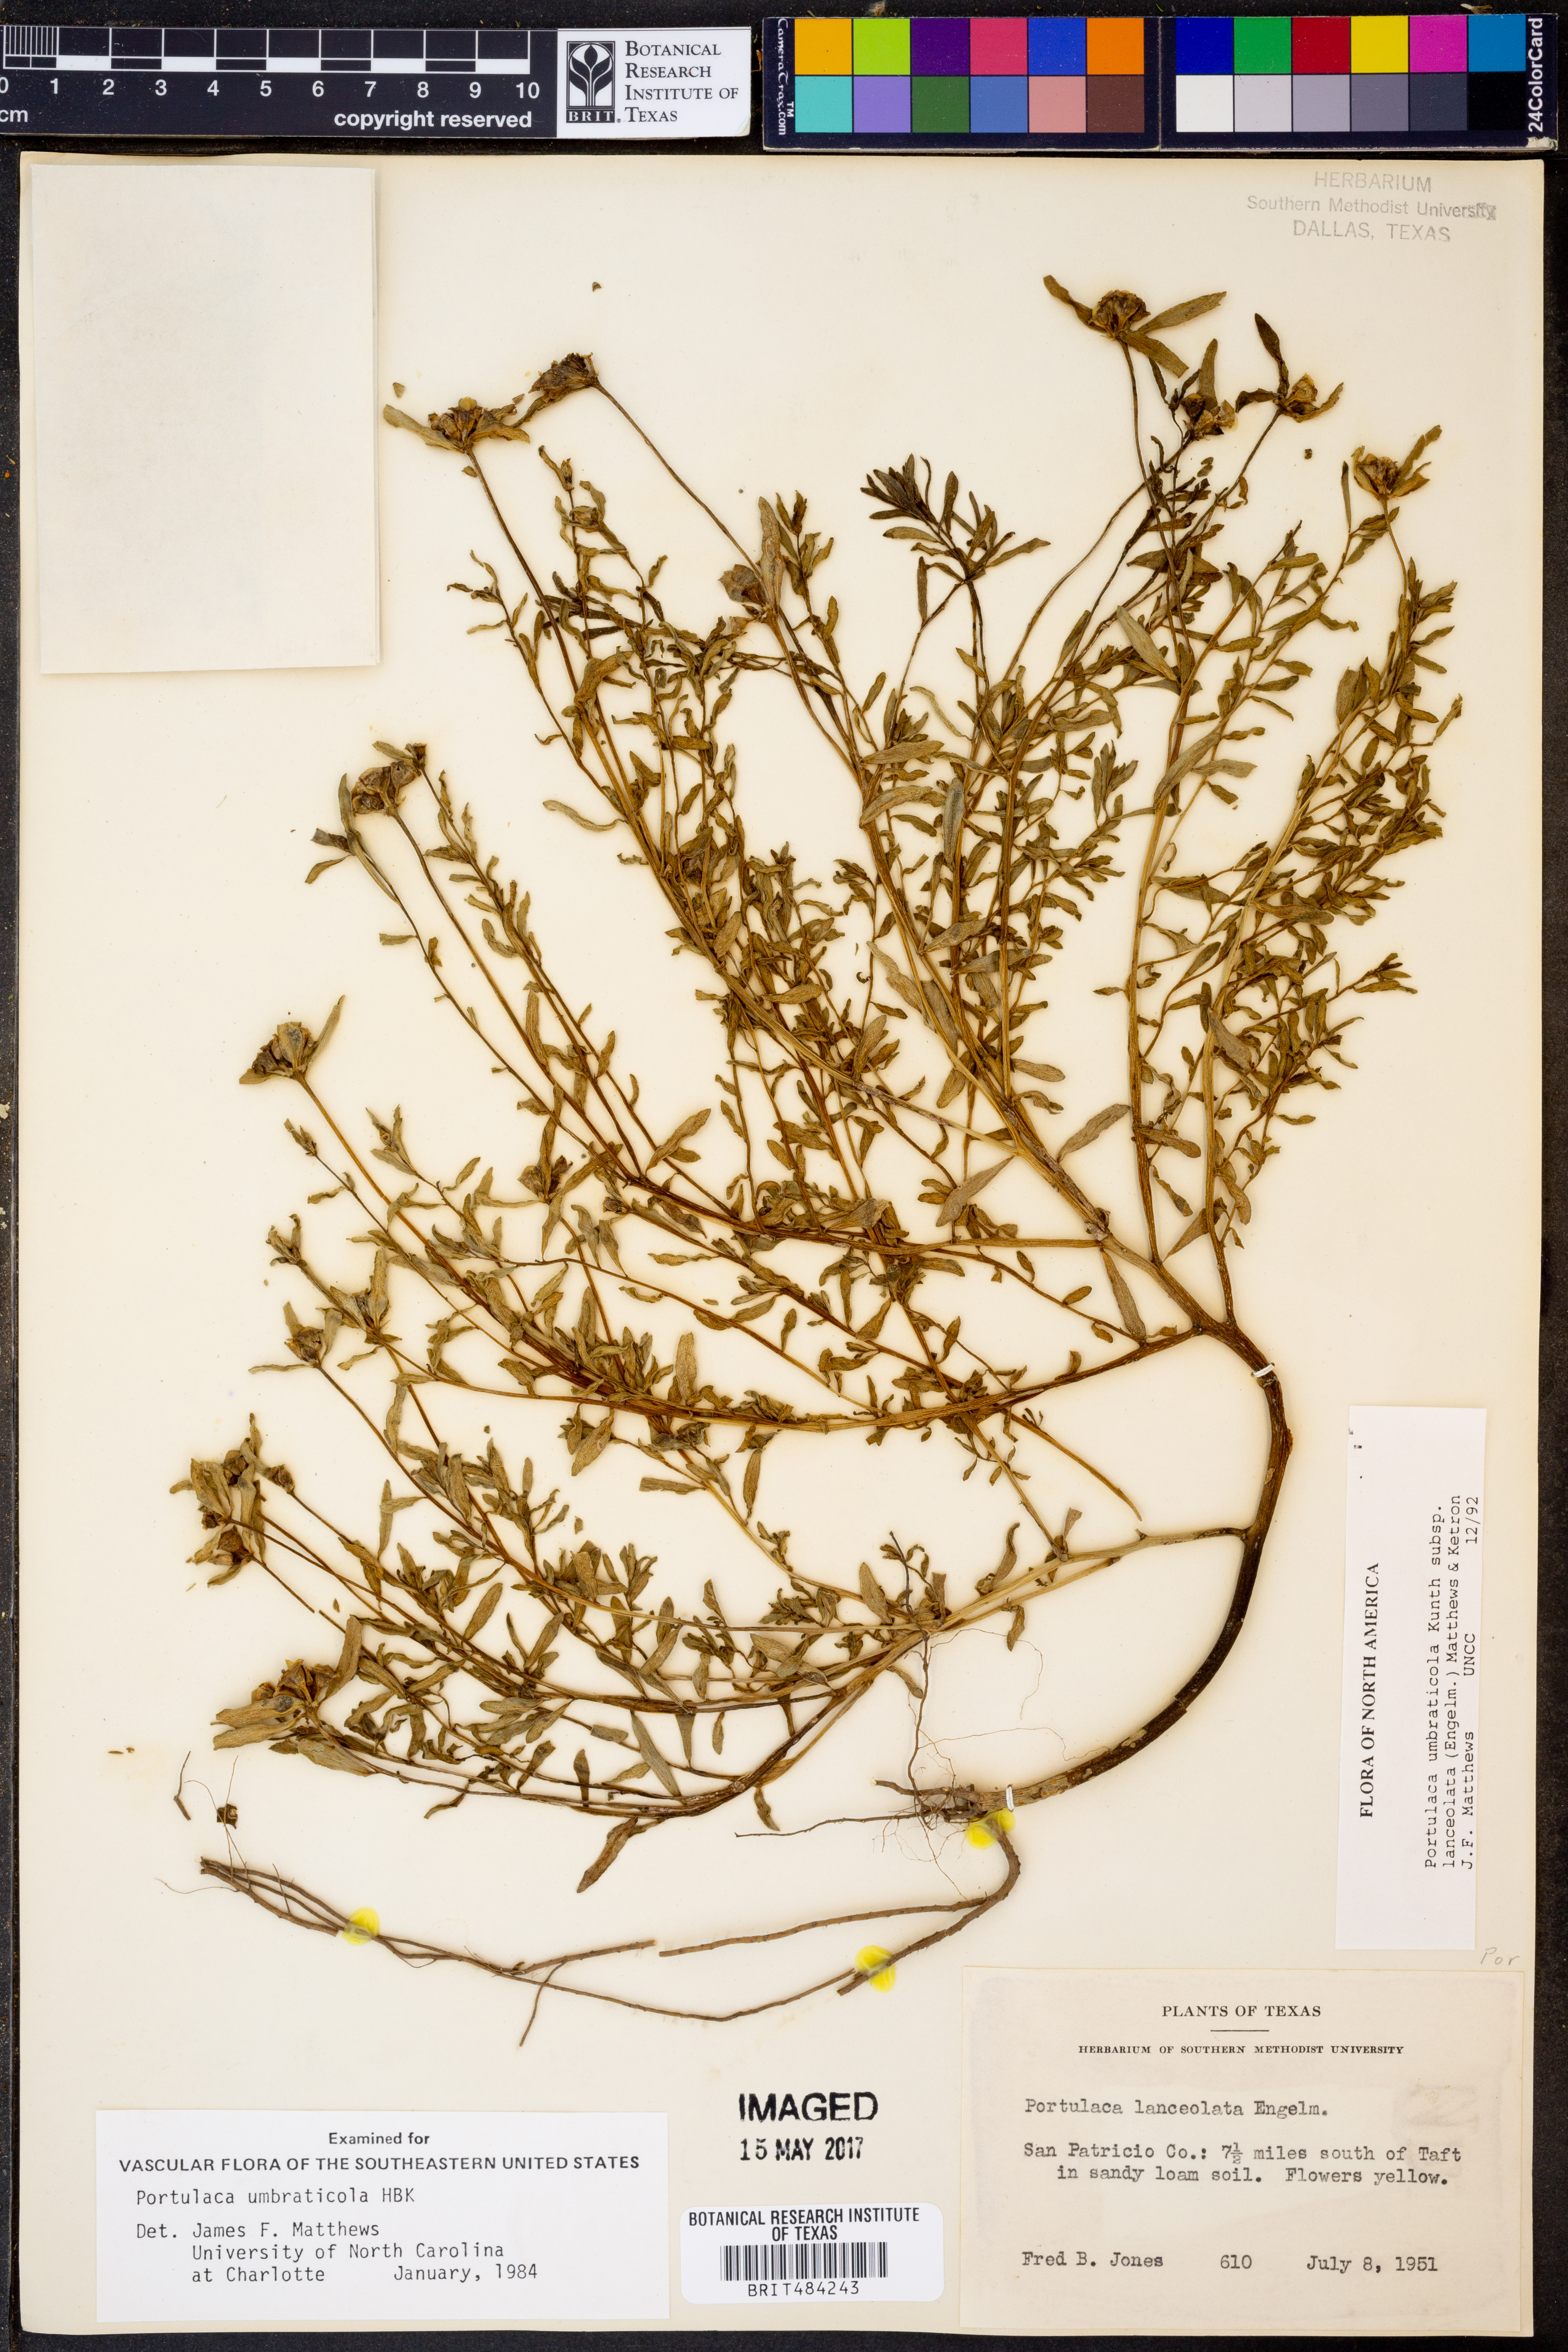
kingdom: Plantae
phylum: Tracheophyta
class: Magnoliopsida
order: Caryophyllales
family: Portulacaceae
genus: Portulaca
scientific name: Portulaca umbraticola
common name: Wingpod purslane
